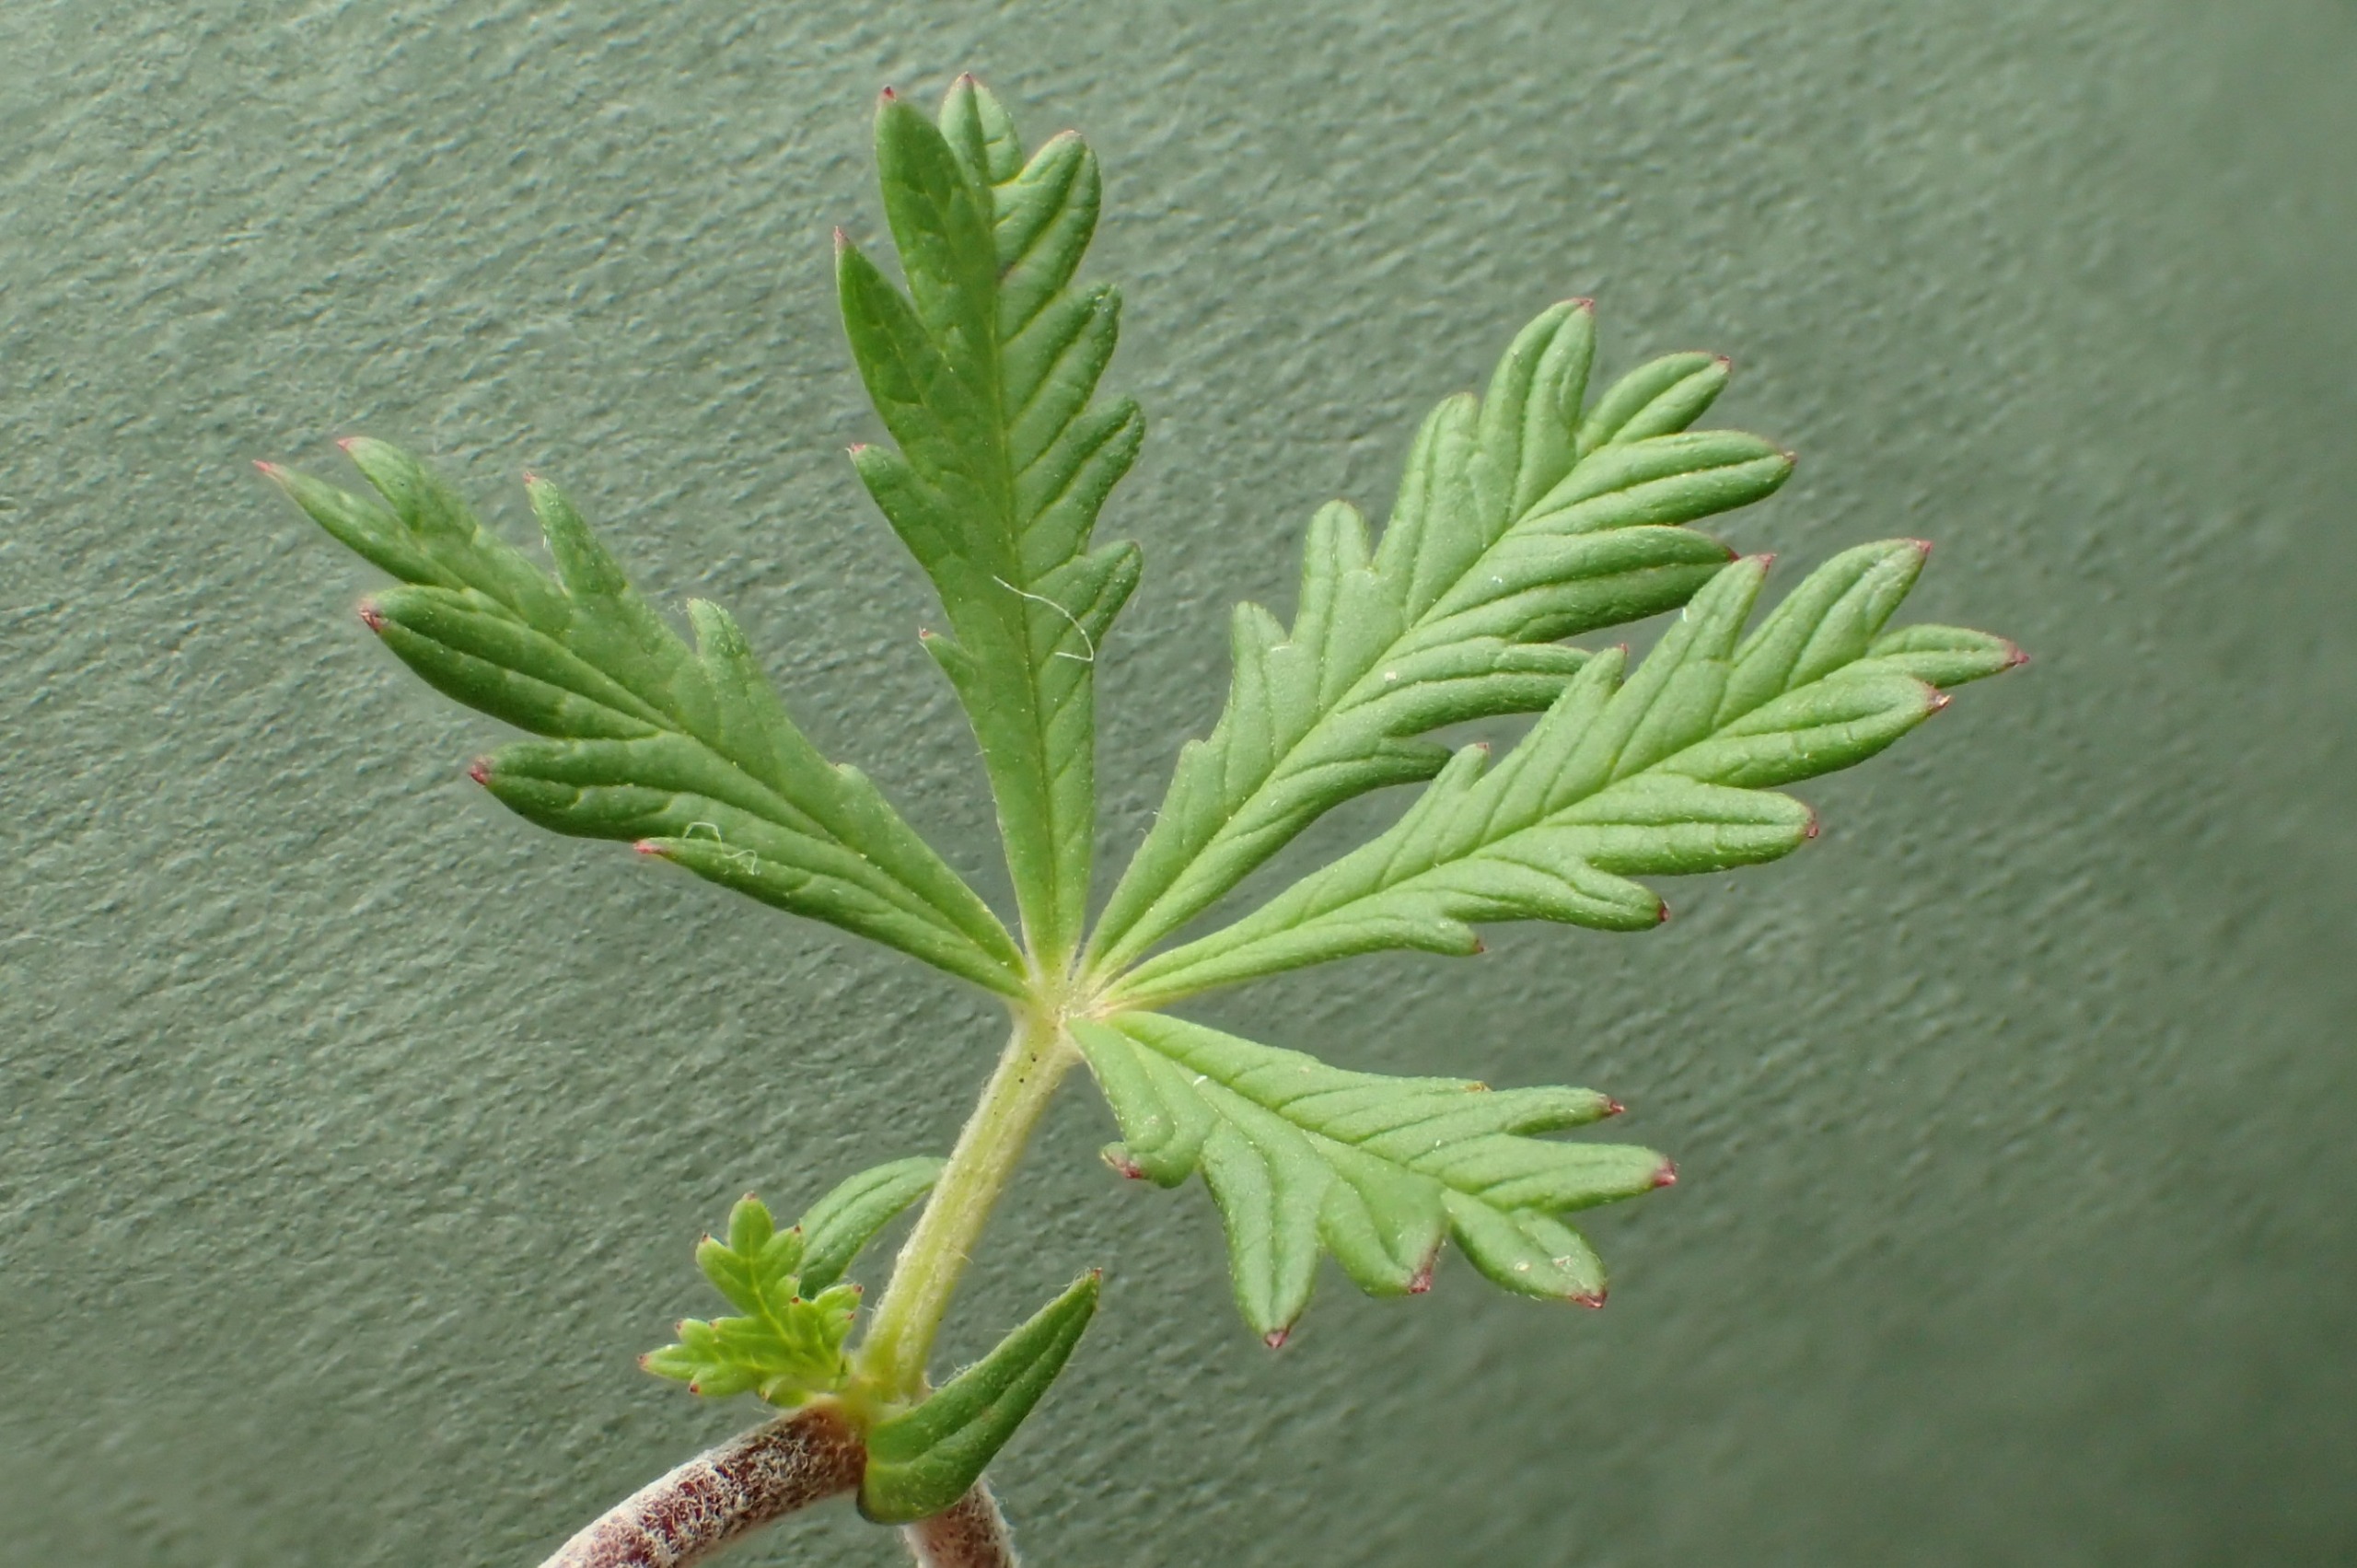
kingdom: Plantae
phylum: Tracheophyta
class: Magnoliopsida
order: Rosales
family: Rosaceae
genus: Potentilla
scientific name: Potentilla argentea
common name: Sølv-potentil
